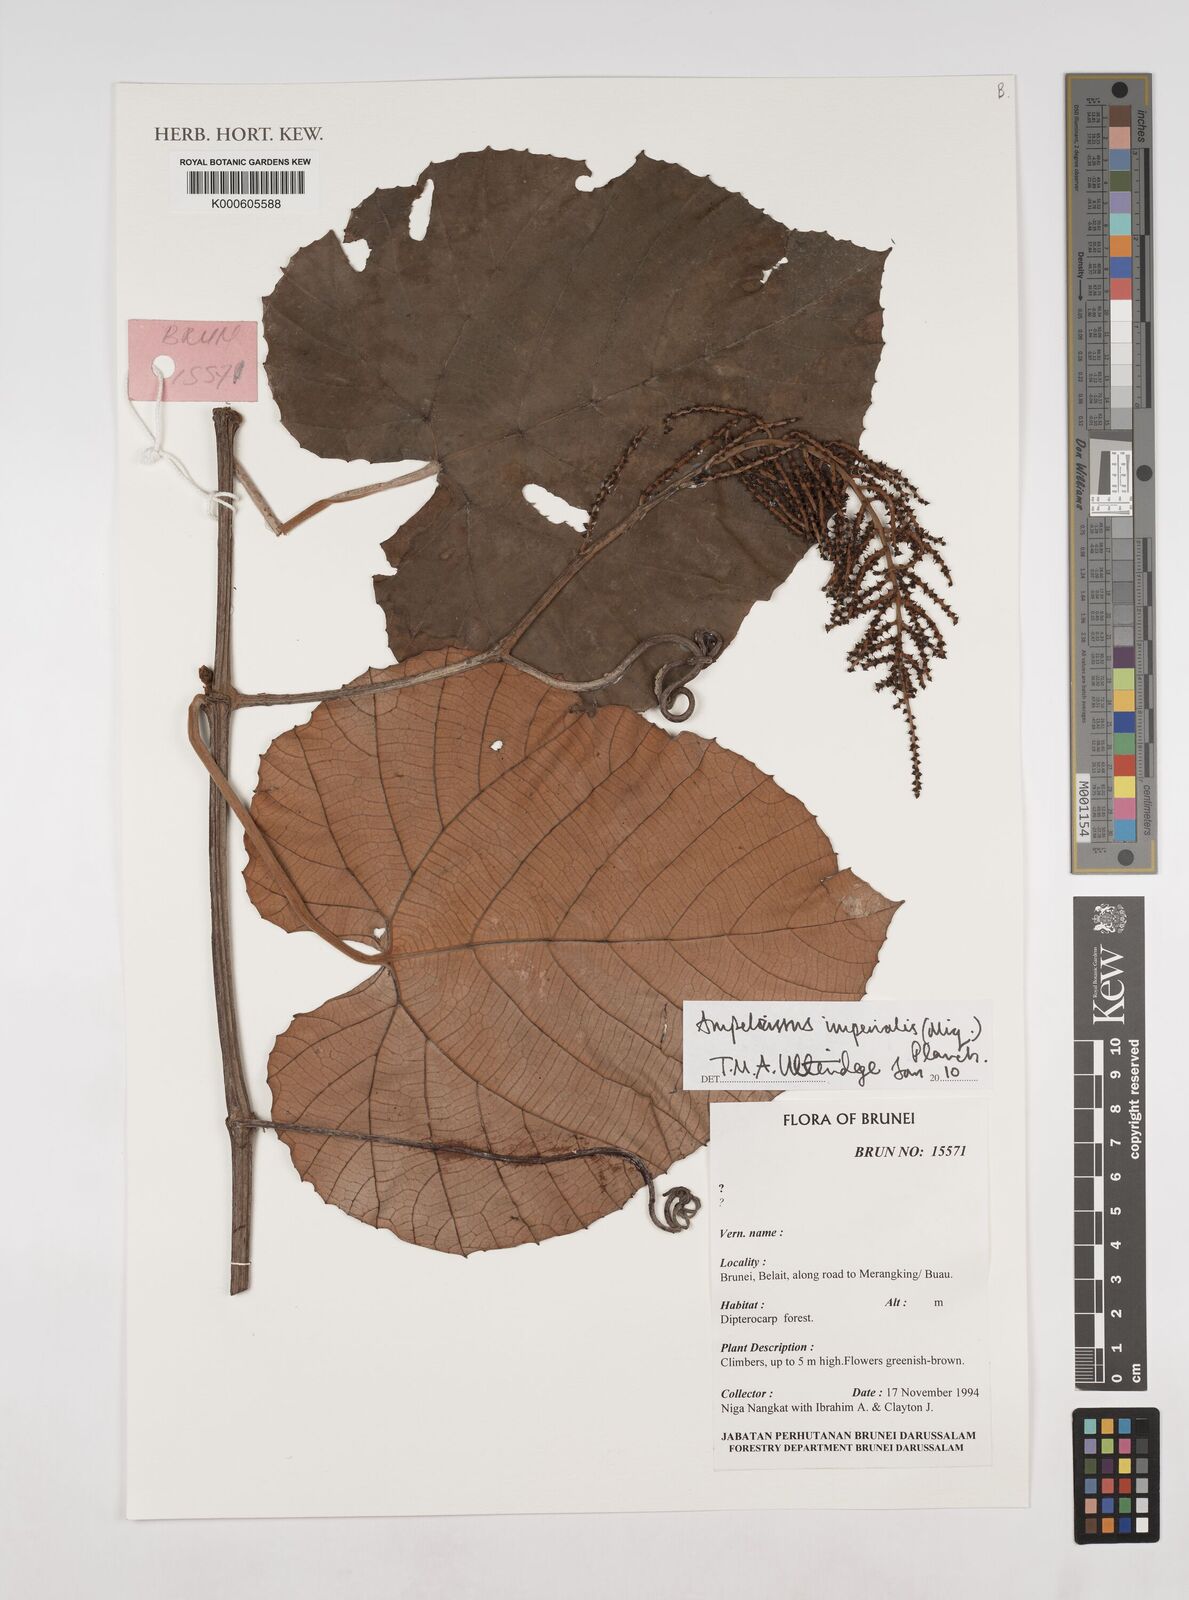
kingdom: Plantae
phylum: Tracheophyta
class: Magnoliopsida
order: Vitales
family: Vitaceae
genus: Ampelocissus
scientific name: Ampelocissus imperialis
